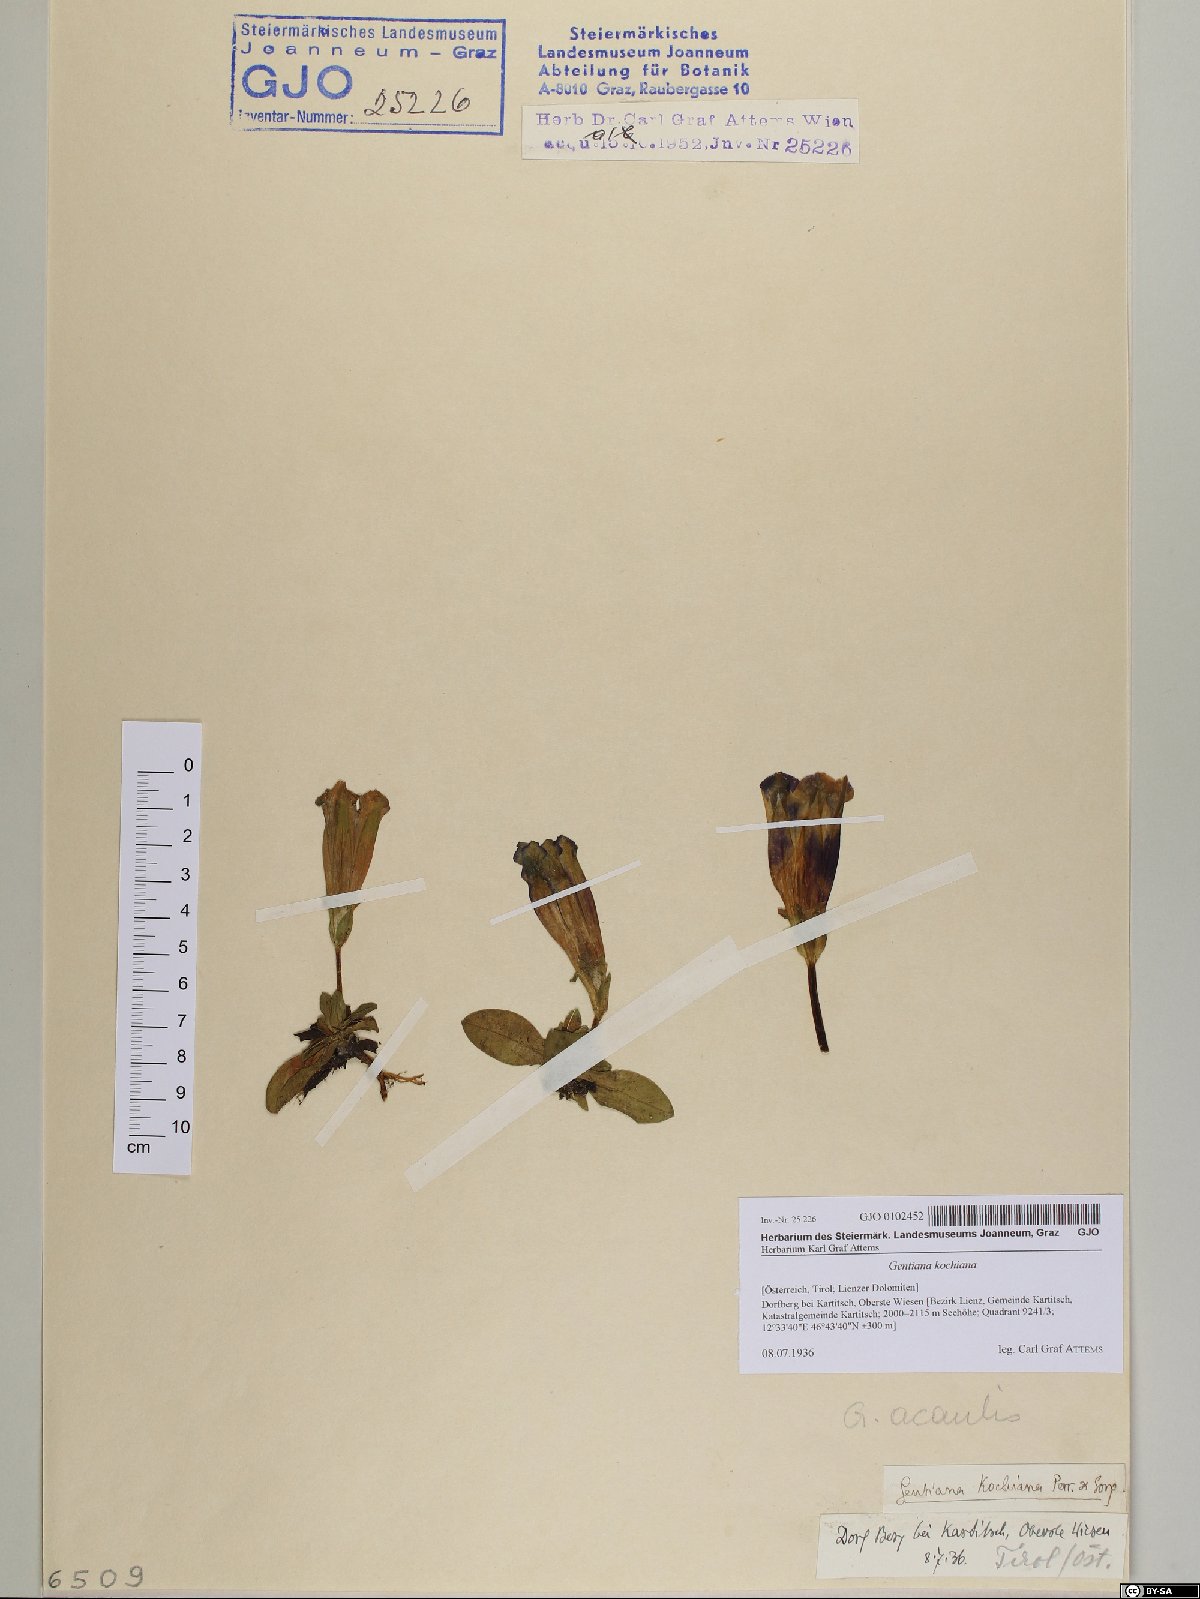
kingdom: Plantae
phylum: Tracheophyta
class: Magnoliopsida
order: Gentianales
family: Gentianaceae
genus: Gentiana
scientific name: Gentiana acaulis
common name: Trumpet gentian
